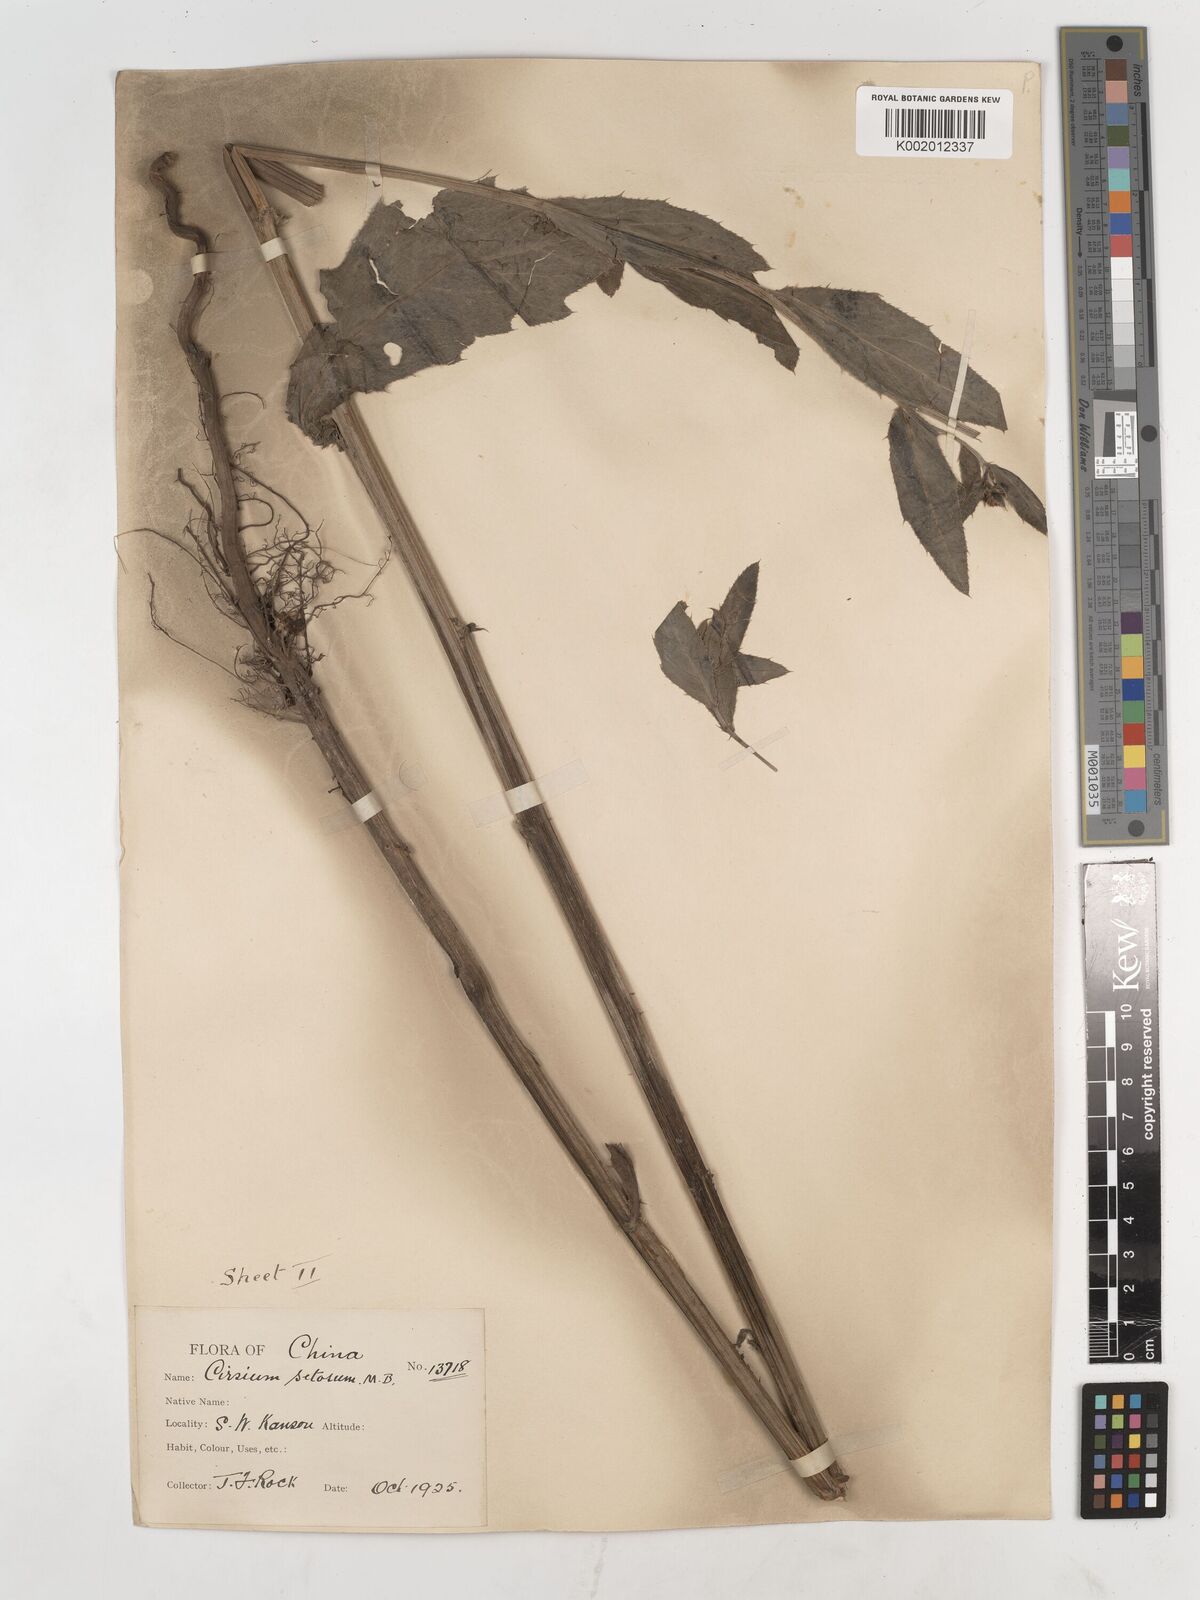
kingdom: Plantae
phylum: Tracheophyta
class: Magnoliopsida
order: Asterales
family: Asteraceae
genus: Cirsium
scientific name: Cirsium arvense
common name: Creeping thistle
